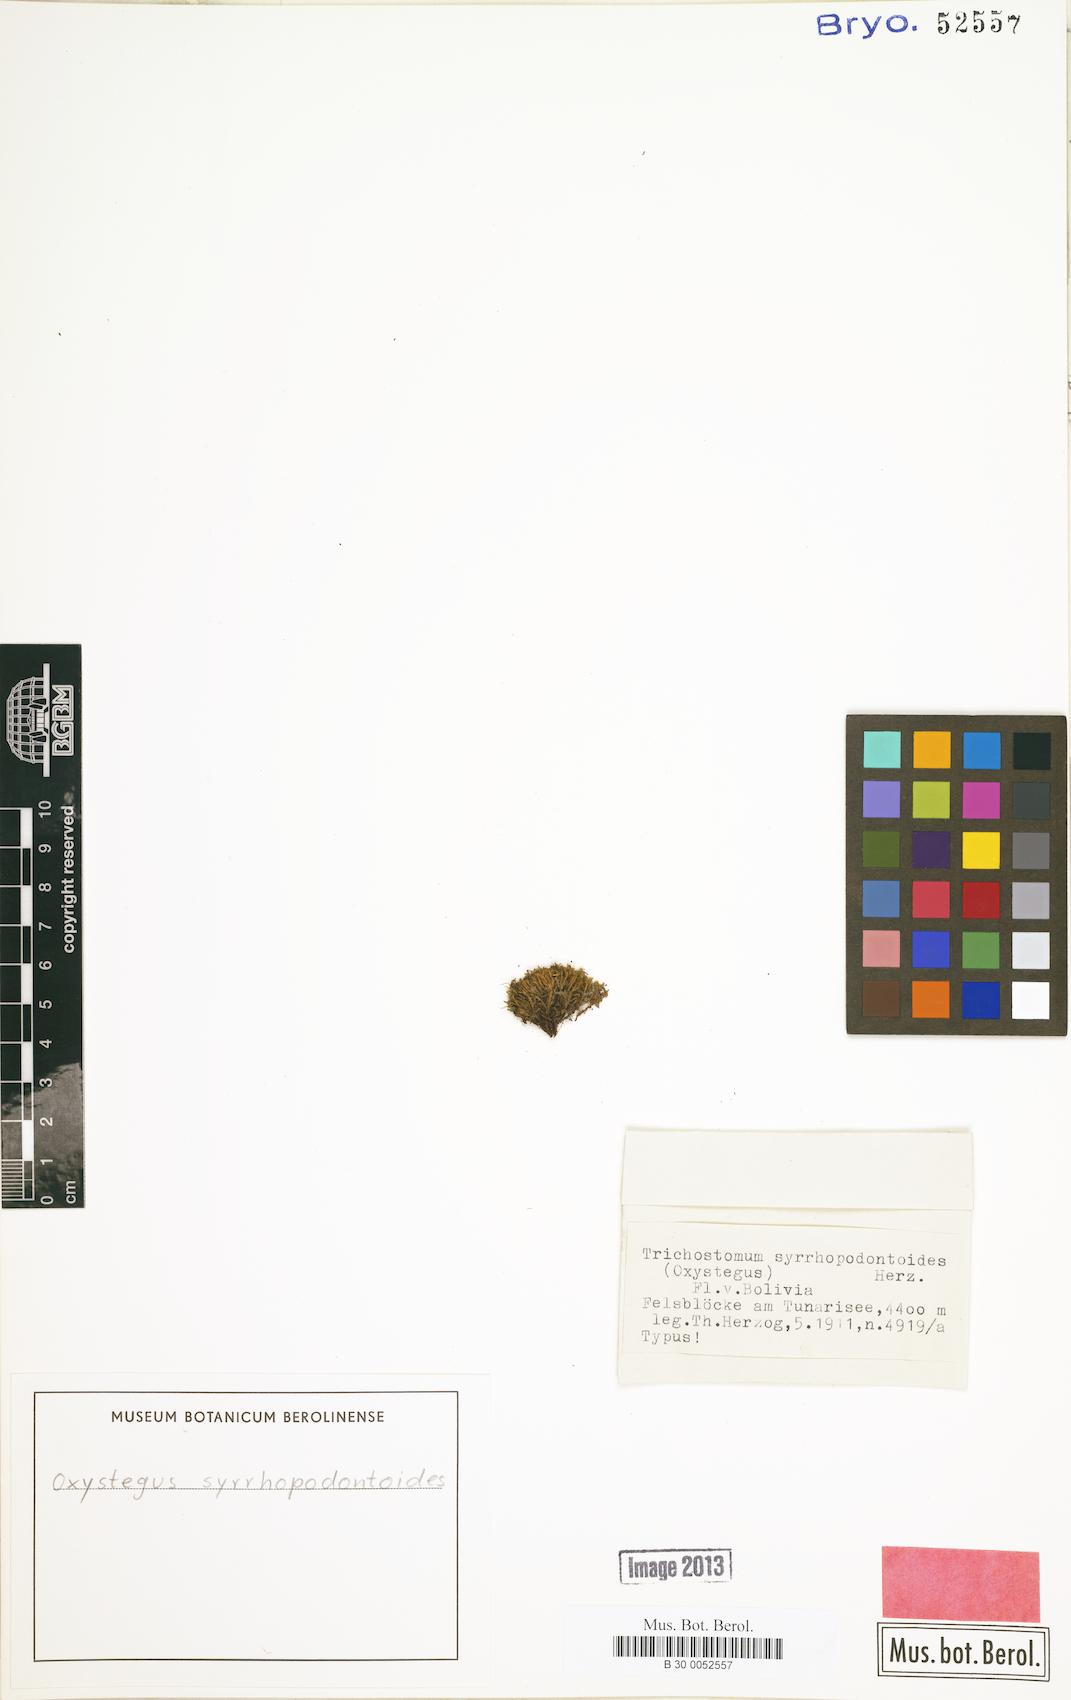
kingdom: Plantae
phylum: Bryophyta
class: Bryopsida
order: Pottiales
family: Pottiaceae
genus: Chionoloma
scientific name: Chionoloma tenuirostre
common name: Narrow-fruited crisp-moss
